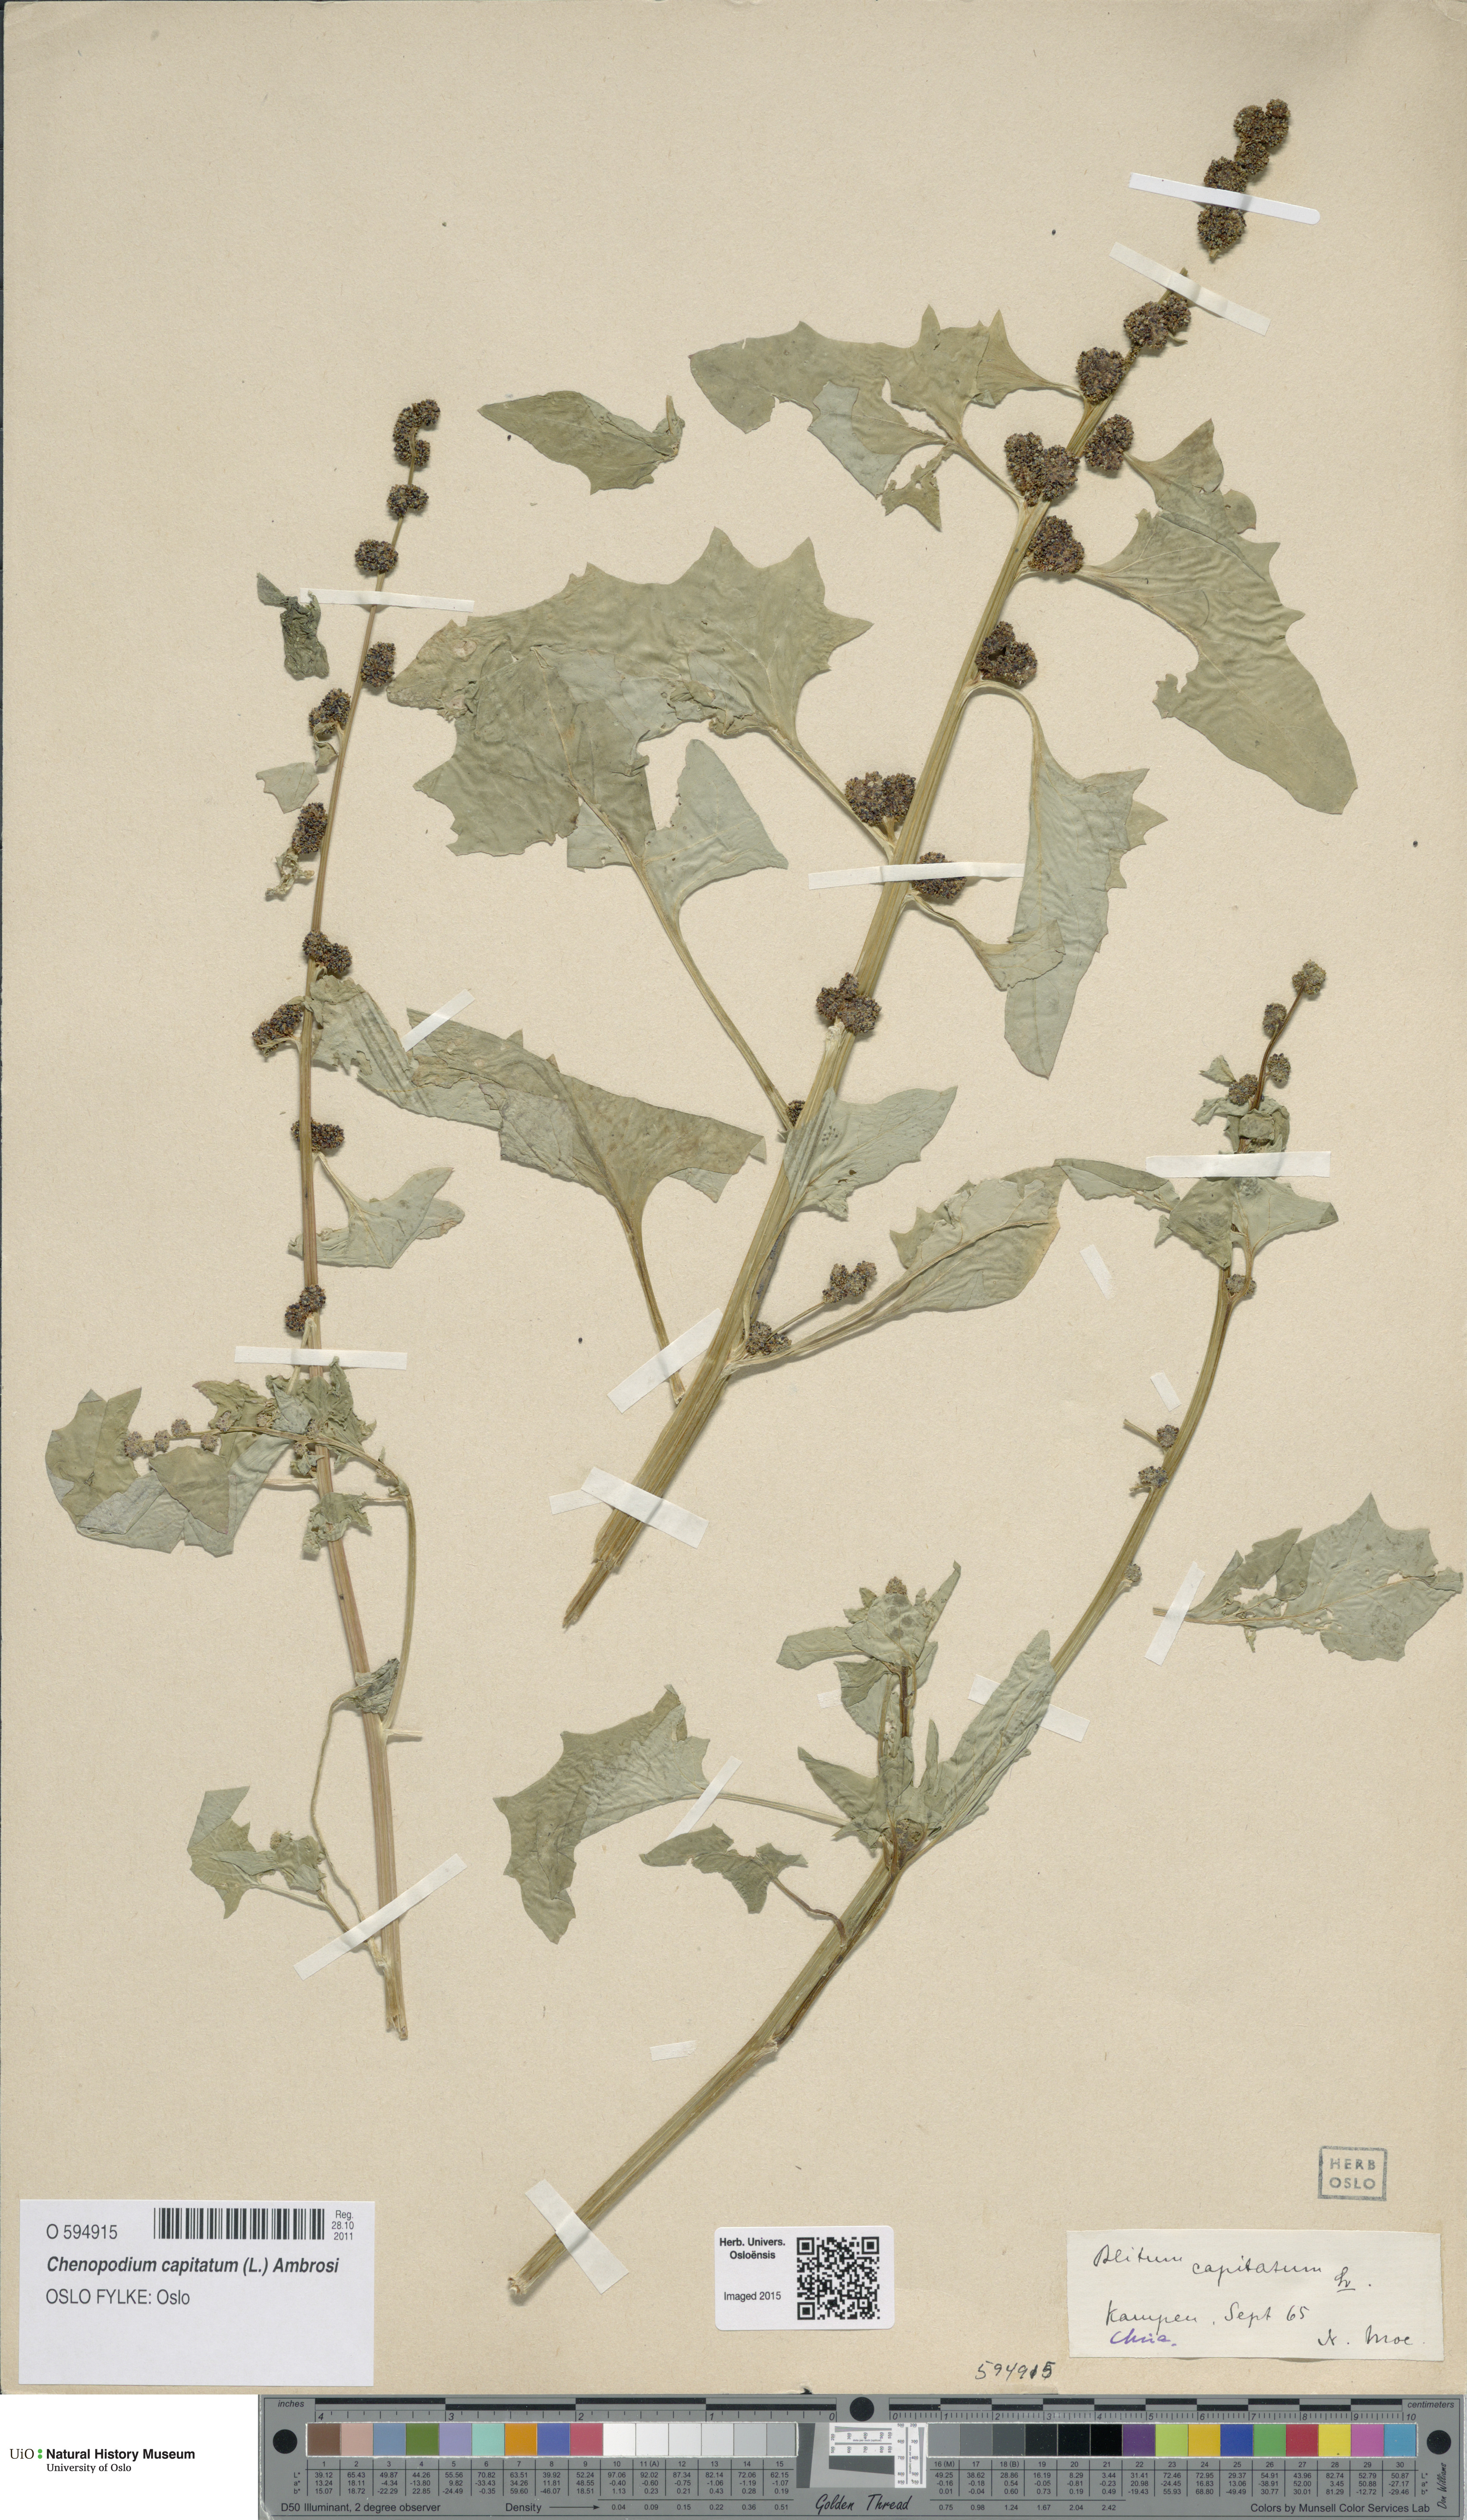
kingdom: Plantae
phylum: Tracheophyta
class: Magnoliopsida
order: Caryophyllales
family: Amaranthaceae
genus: Blitum
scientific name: Blitum capitatum
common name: Strawberry-blight
